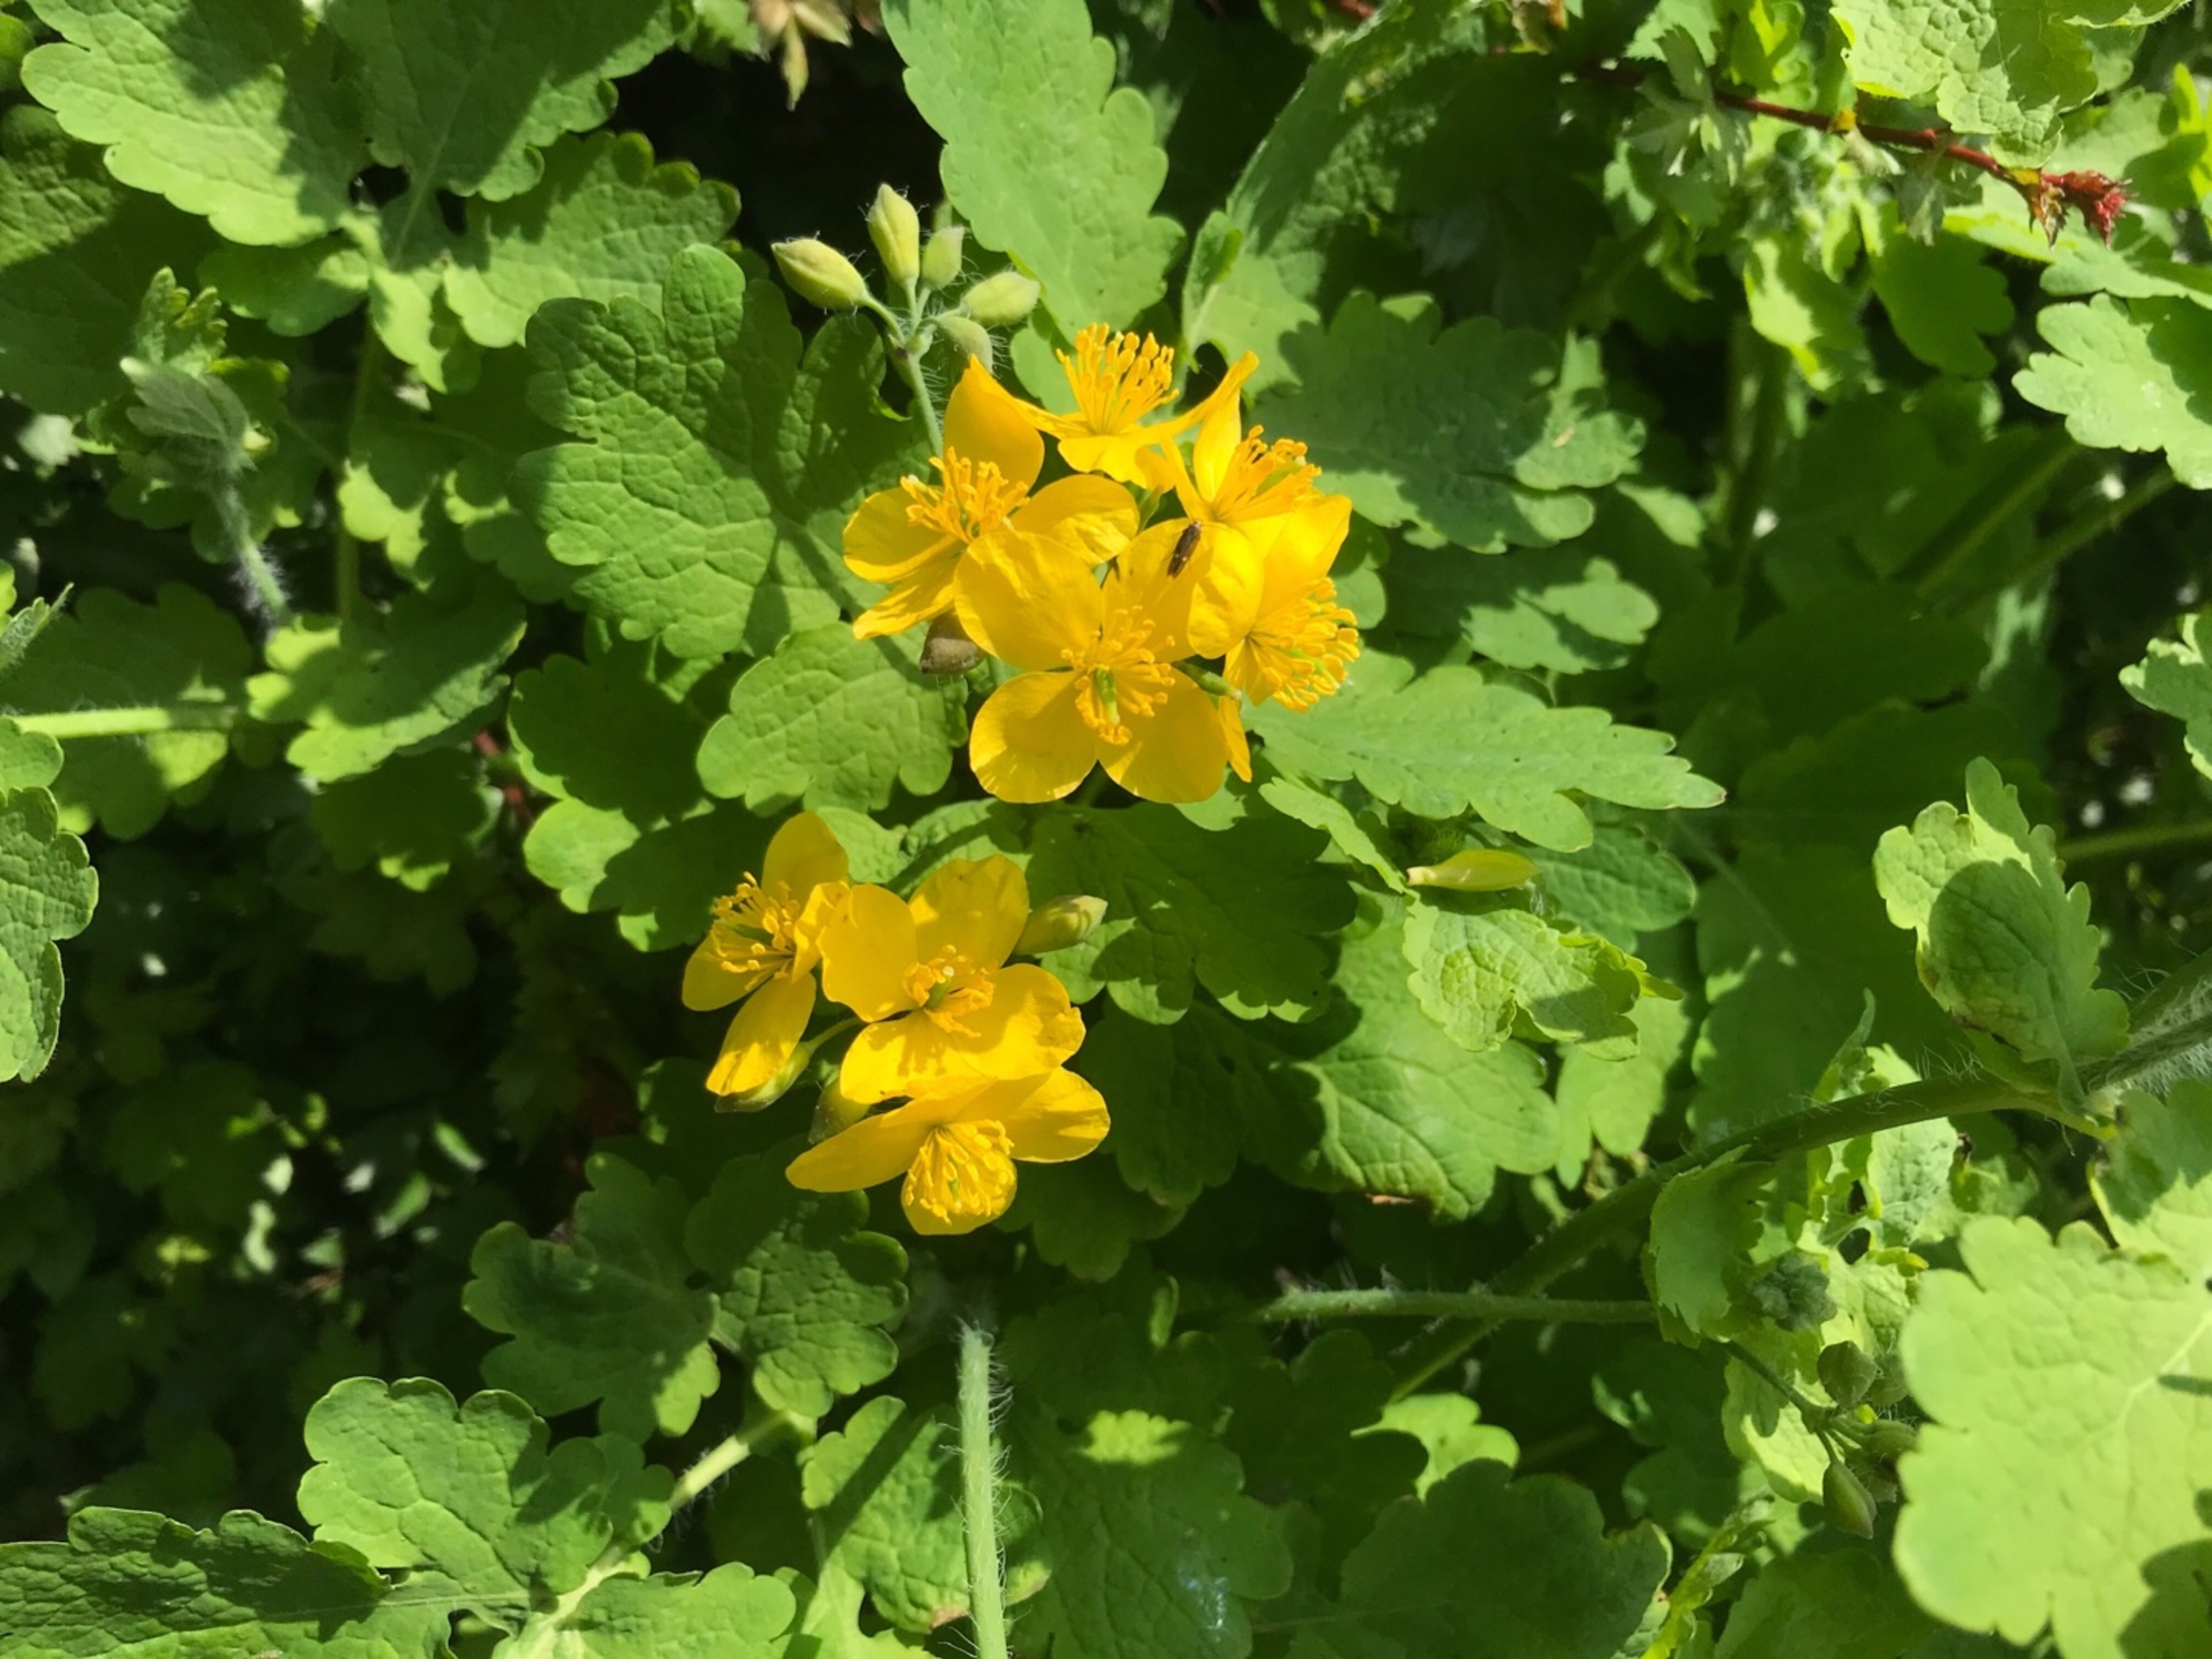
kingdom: Plantae
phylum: Tracheophyta
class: Magnoliopsida
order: Ranunculales
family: Papaveraceae
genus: Chelidonium
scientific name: Chelidonium majus
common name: Svaleurt
